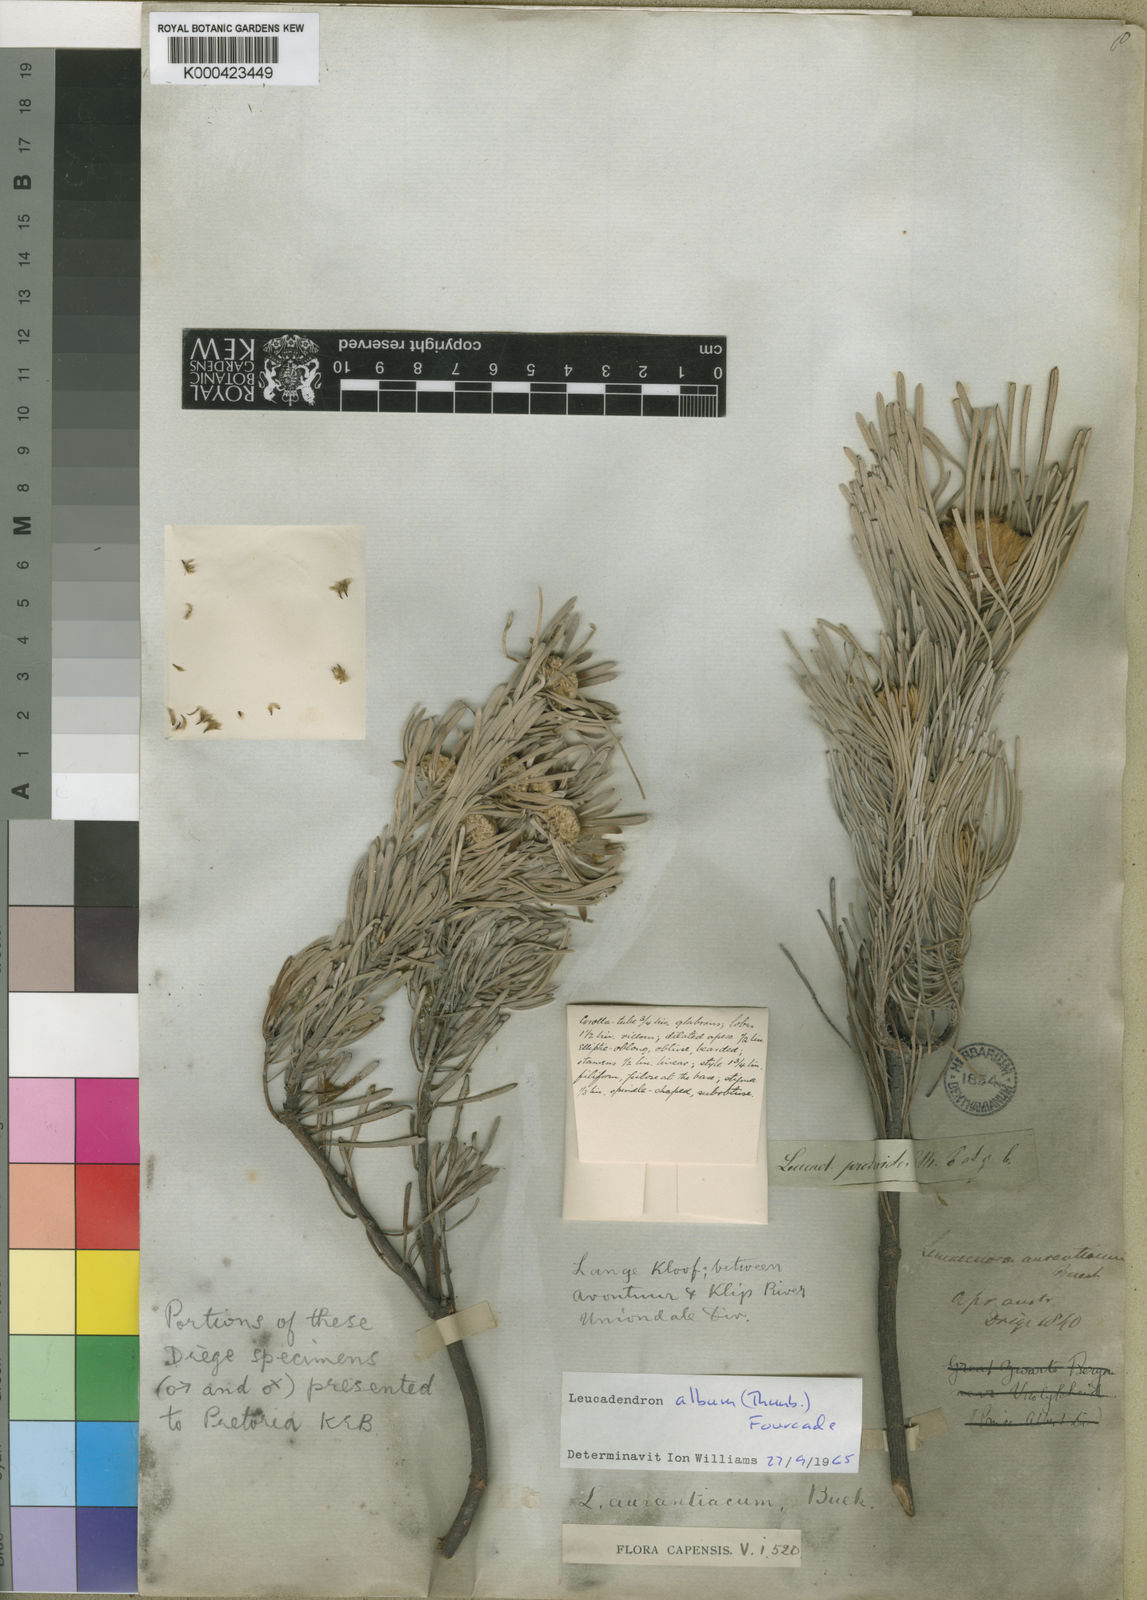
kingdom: Plantae
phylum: Tracheophyta
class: Magnoliopsida
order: Proteales
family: Proteaceae
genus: Leucadendron
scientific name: Leucadendron album
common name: Linear-leaf conebush
